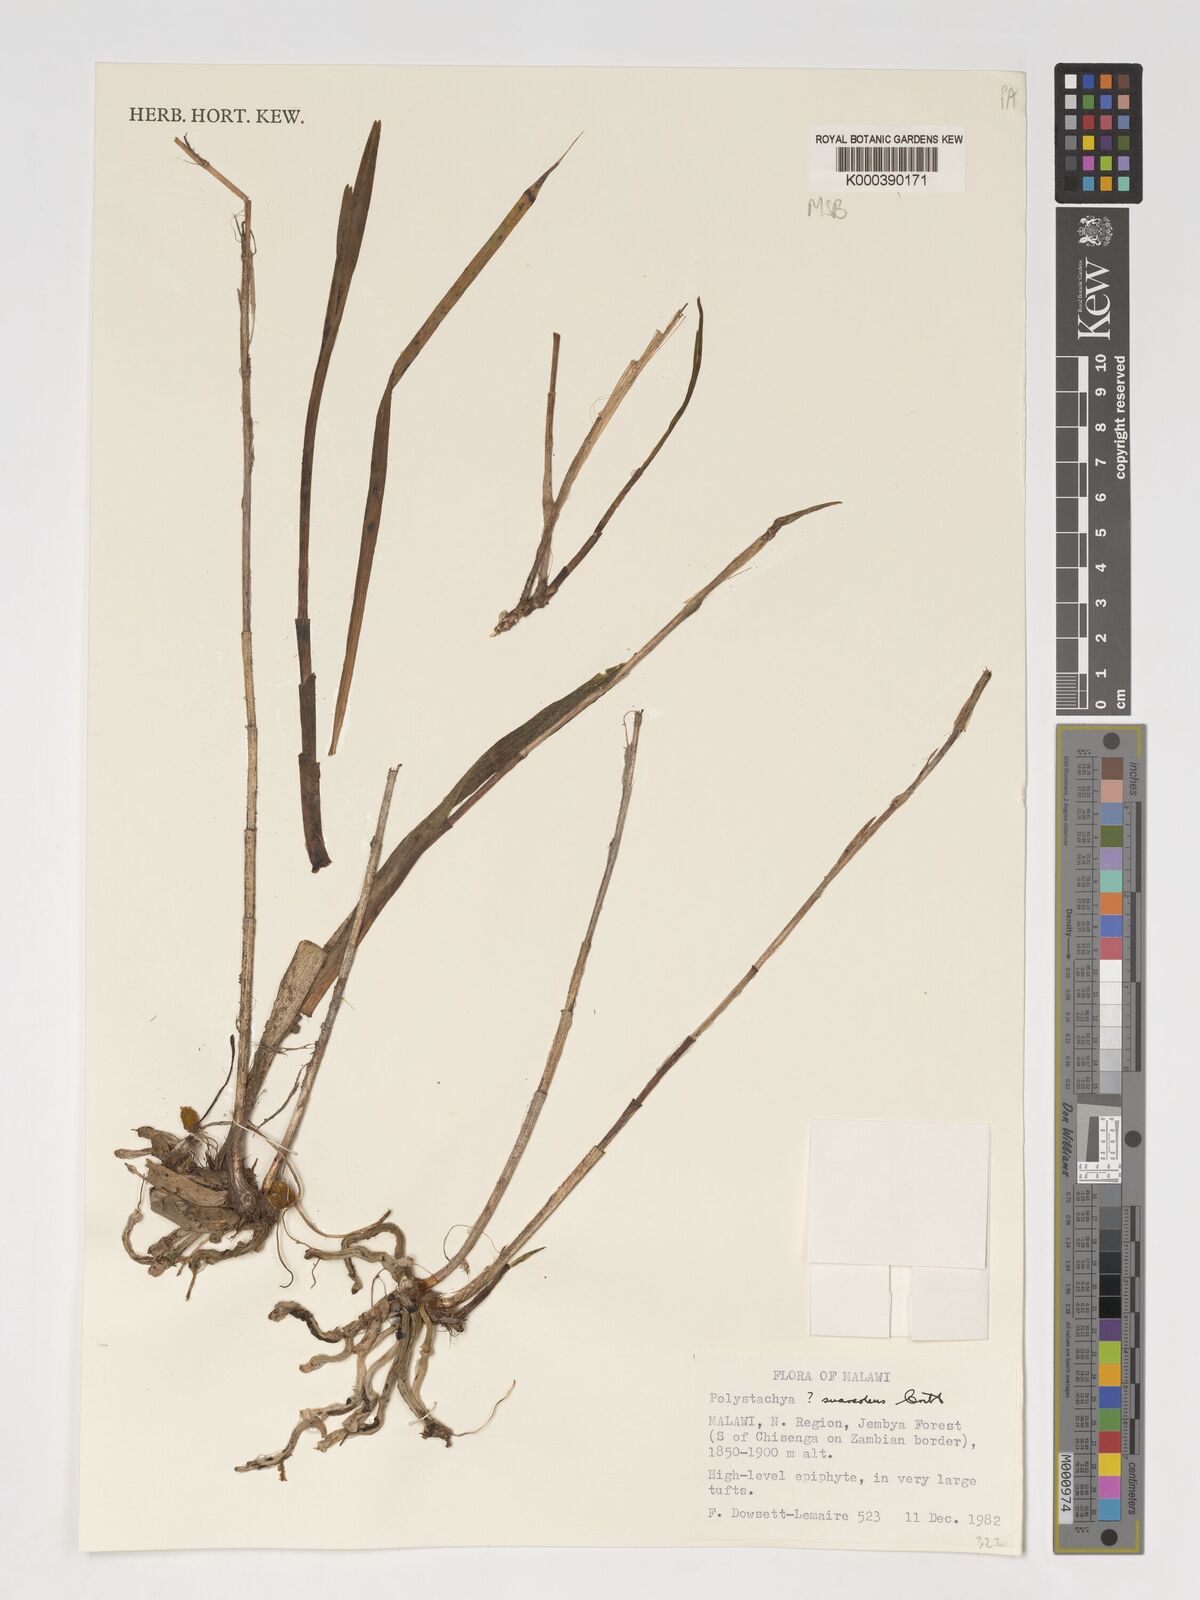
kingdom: Plantae
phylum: Tracheophyta
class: Liliopsida
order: Asparagales
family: Orchidaceae
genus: Polystachya
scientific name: Polystachya suaveolens
